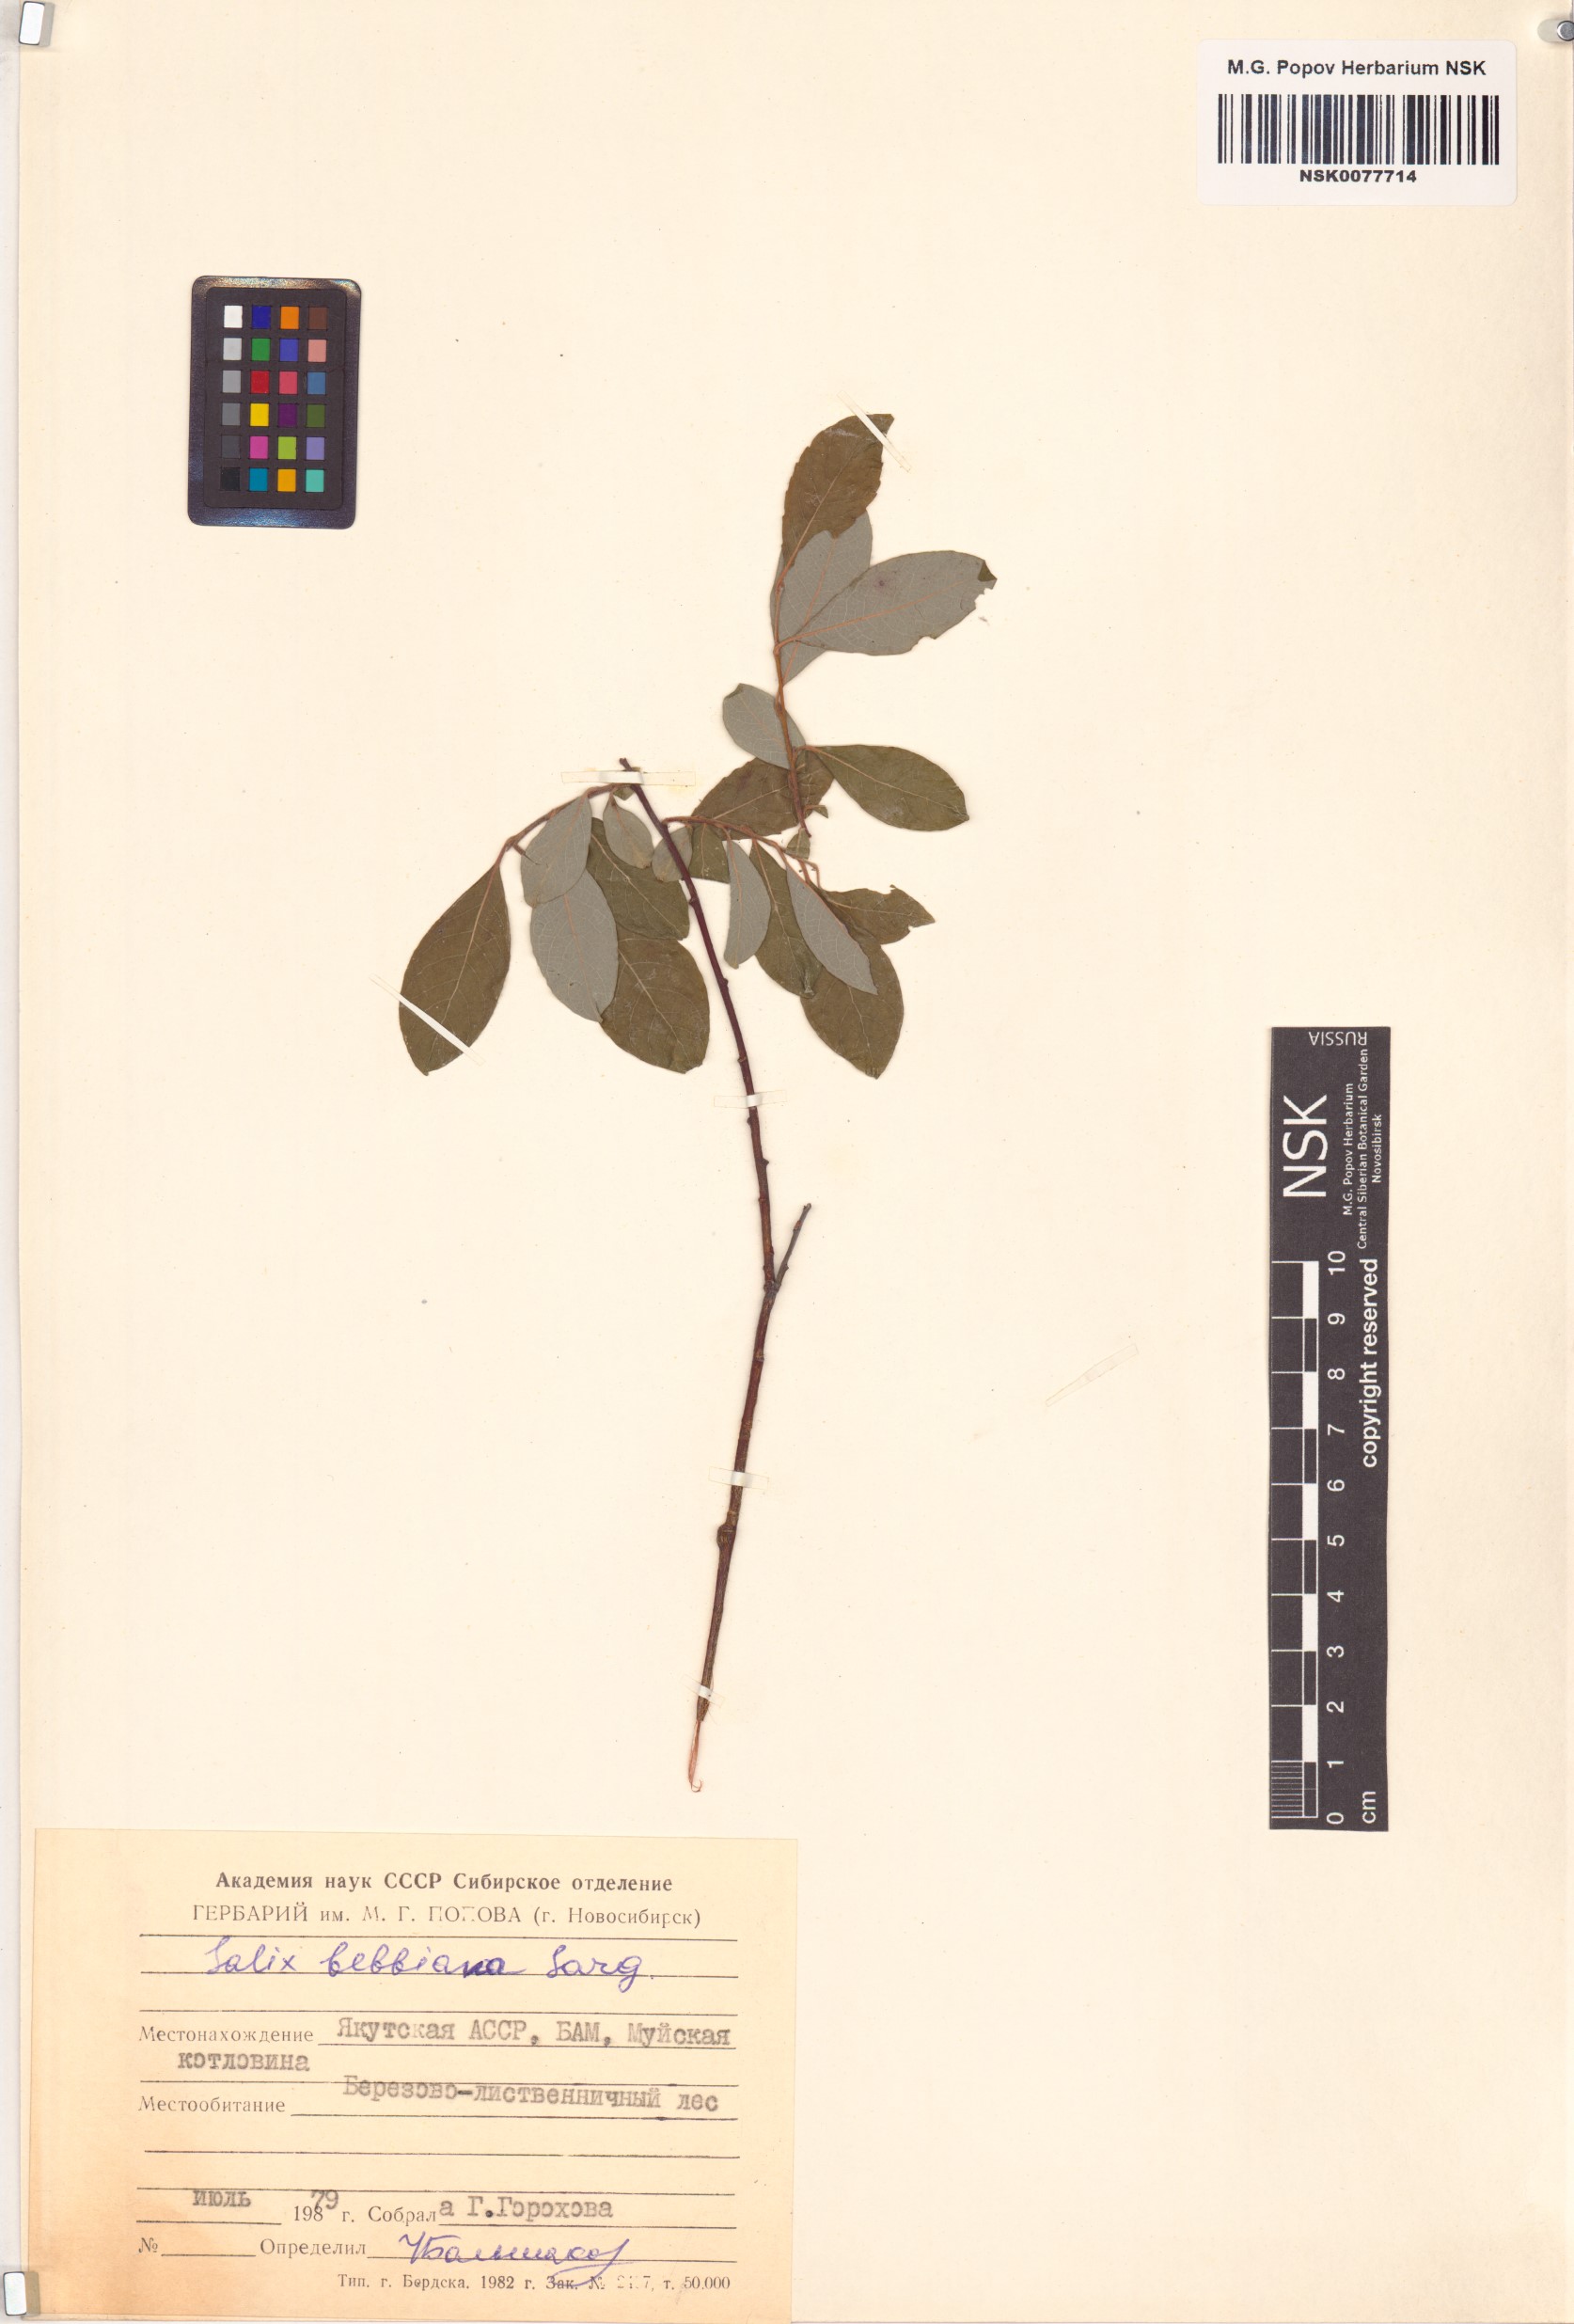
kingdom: Plantae
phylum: Tracheophyta
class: Magnoliopsida
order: Malpighiales
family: Salicaceae
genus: Salix
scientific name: Salix bebbiana
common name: Bebb's willow
